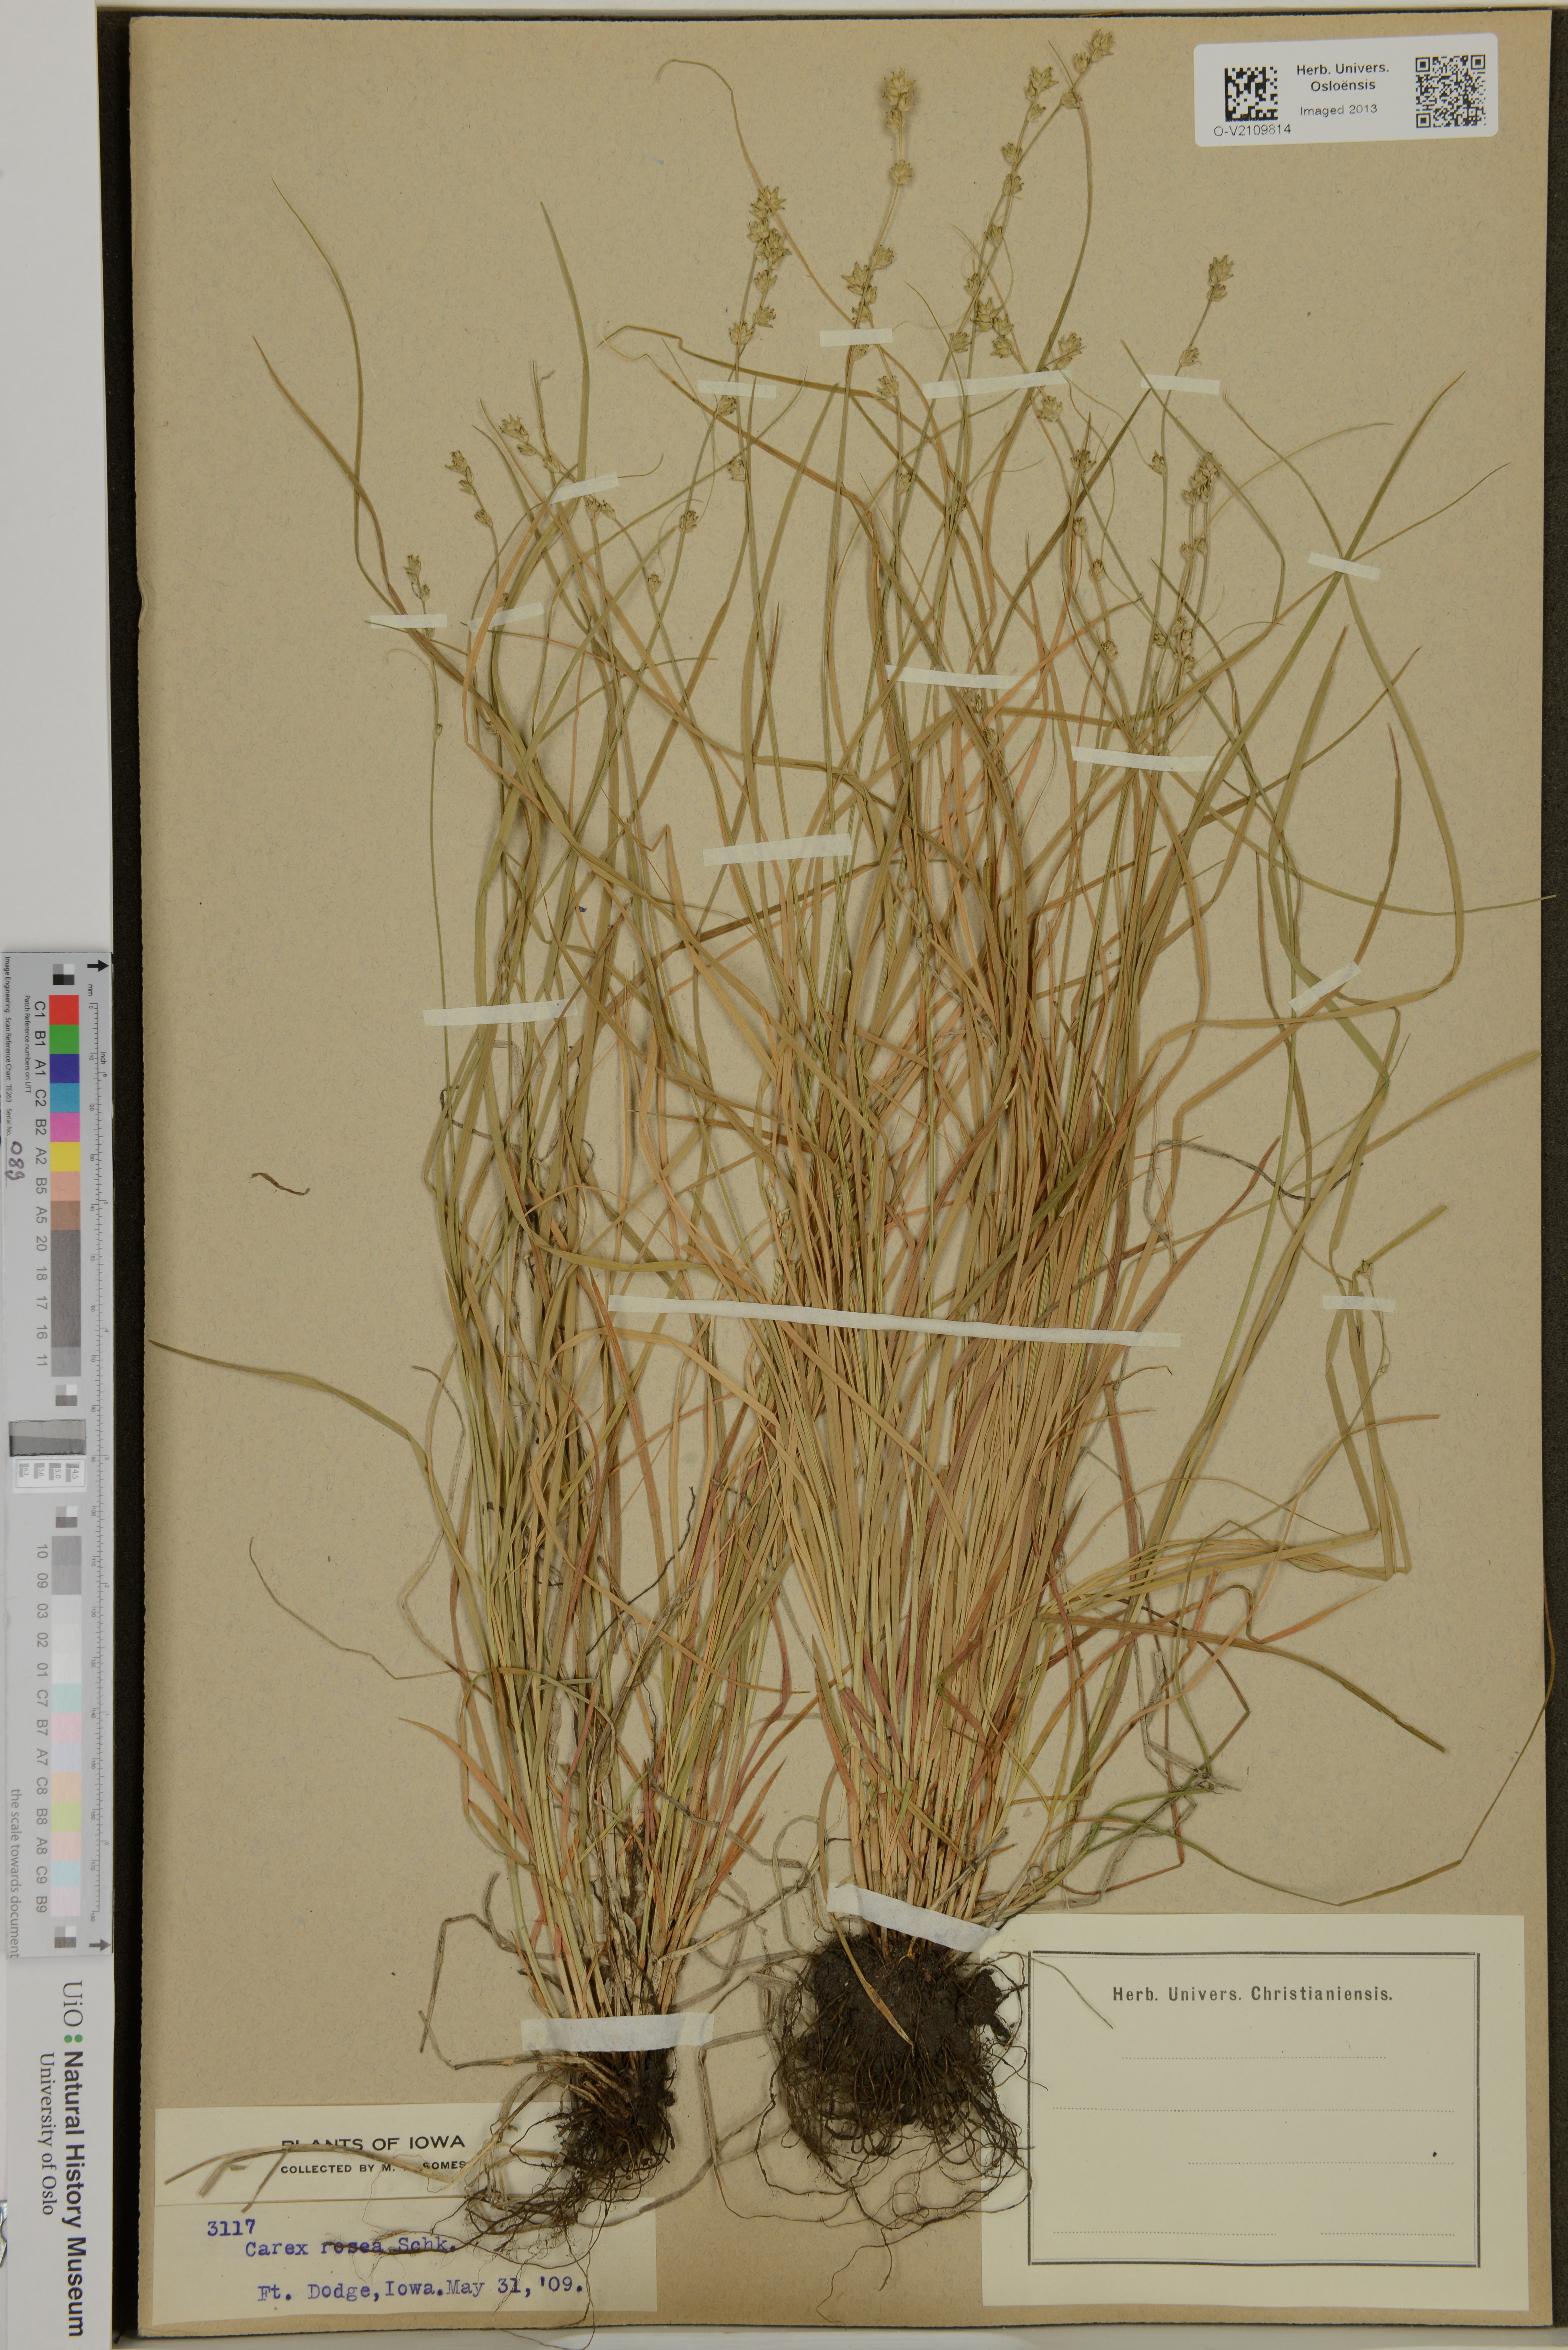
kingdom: Plantae
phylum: Tracheophyta
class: Liliopsida
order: Poales
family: Cyperaceae
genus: Carex
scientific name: Carex rosea
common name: Curly-styled wood sedge
